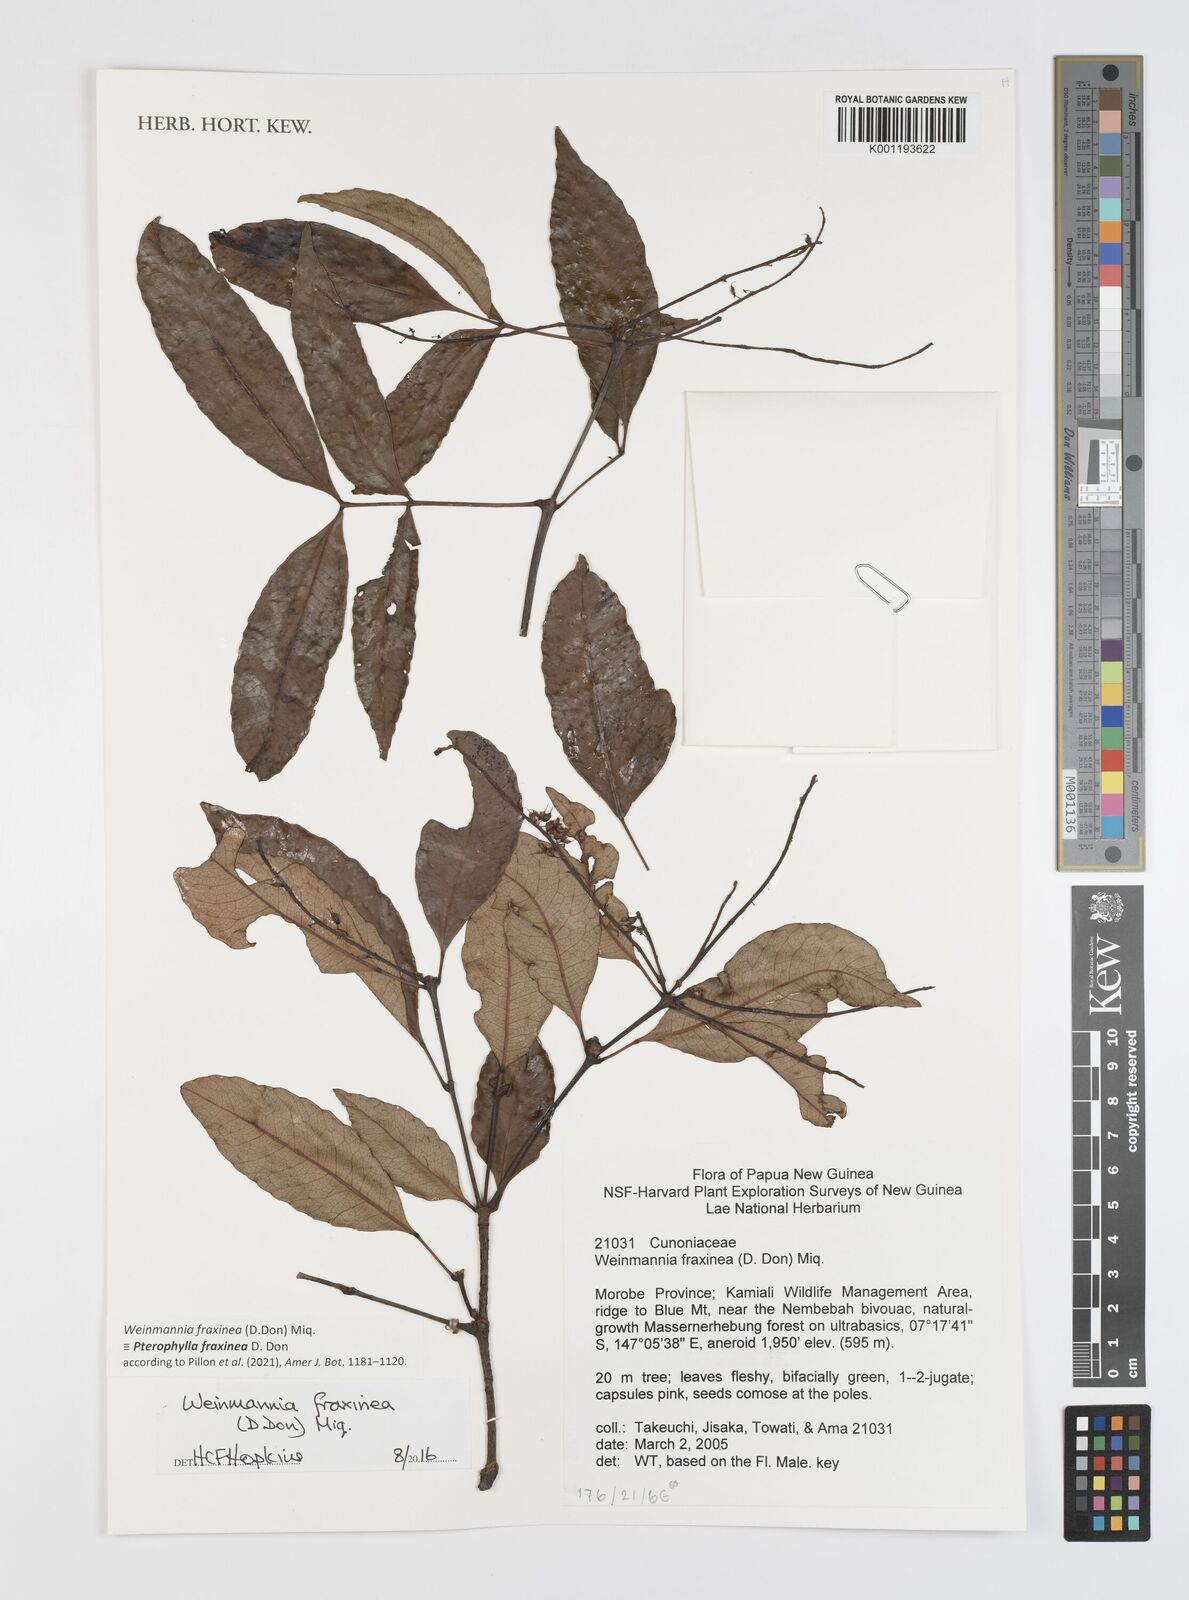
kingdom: Plantae
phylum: Tracheophyta
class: Magnoliopsida
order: Oxalidales
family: Cunoniaceae
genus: Weinmannia
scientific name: Weinmannia
